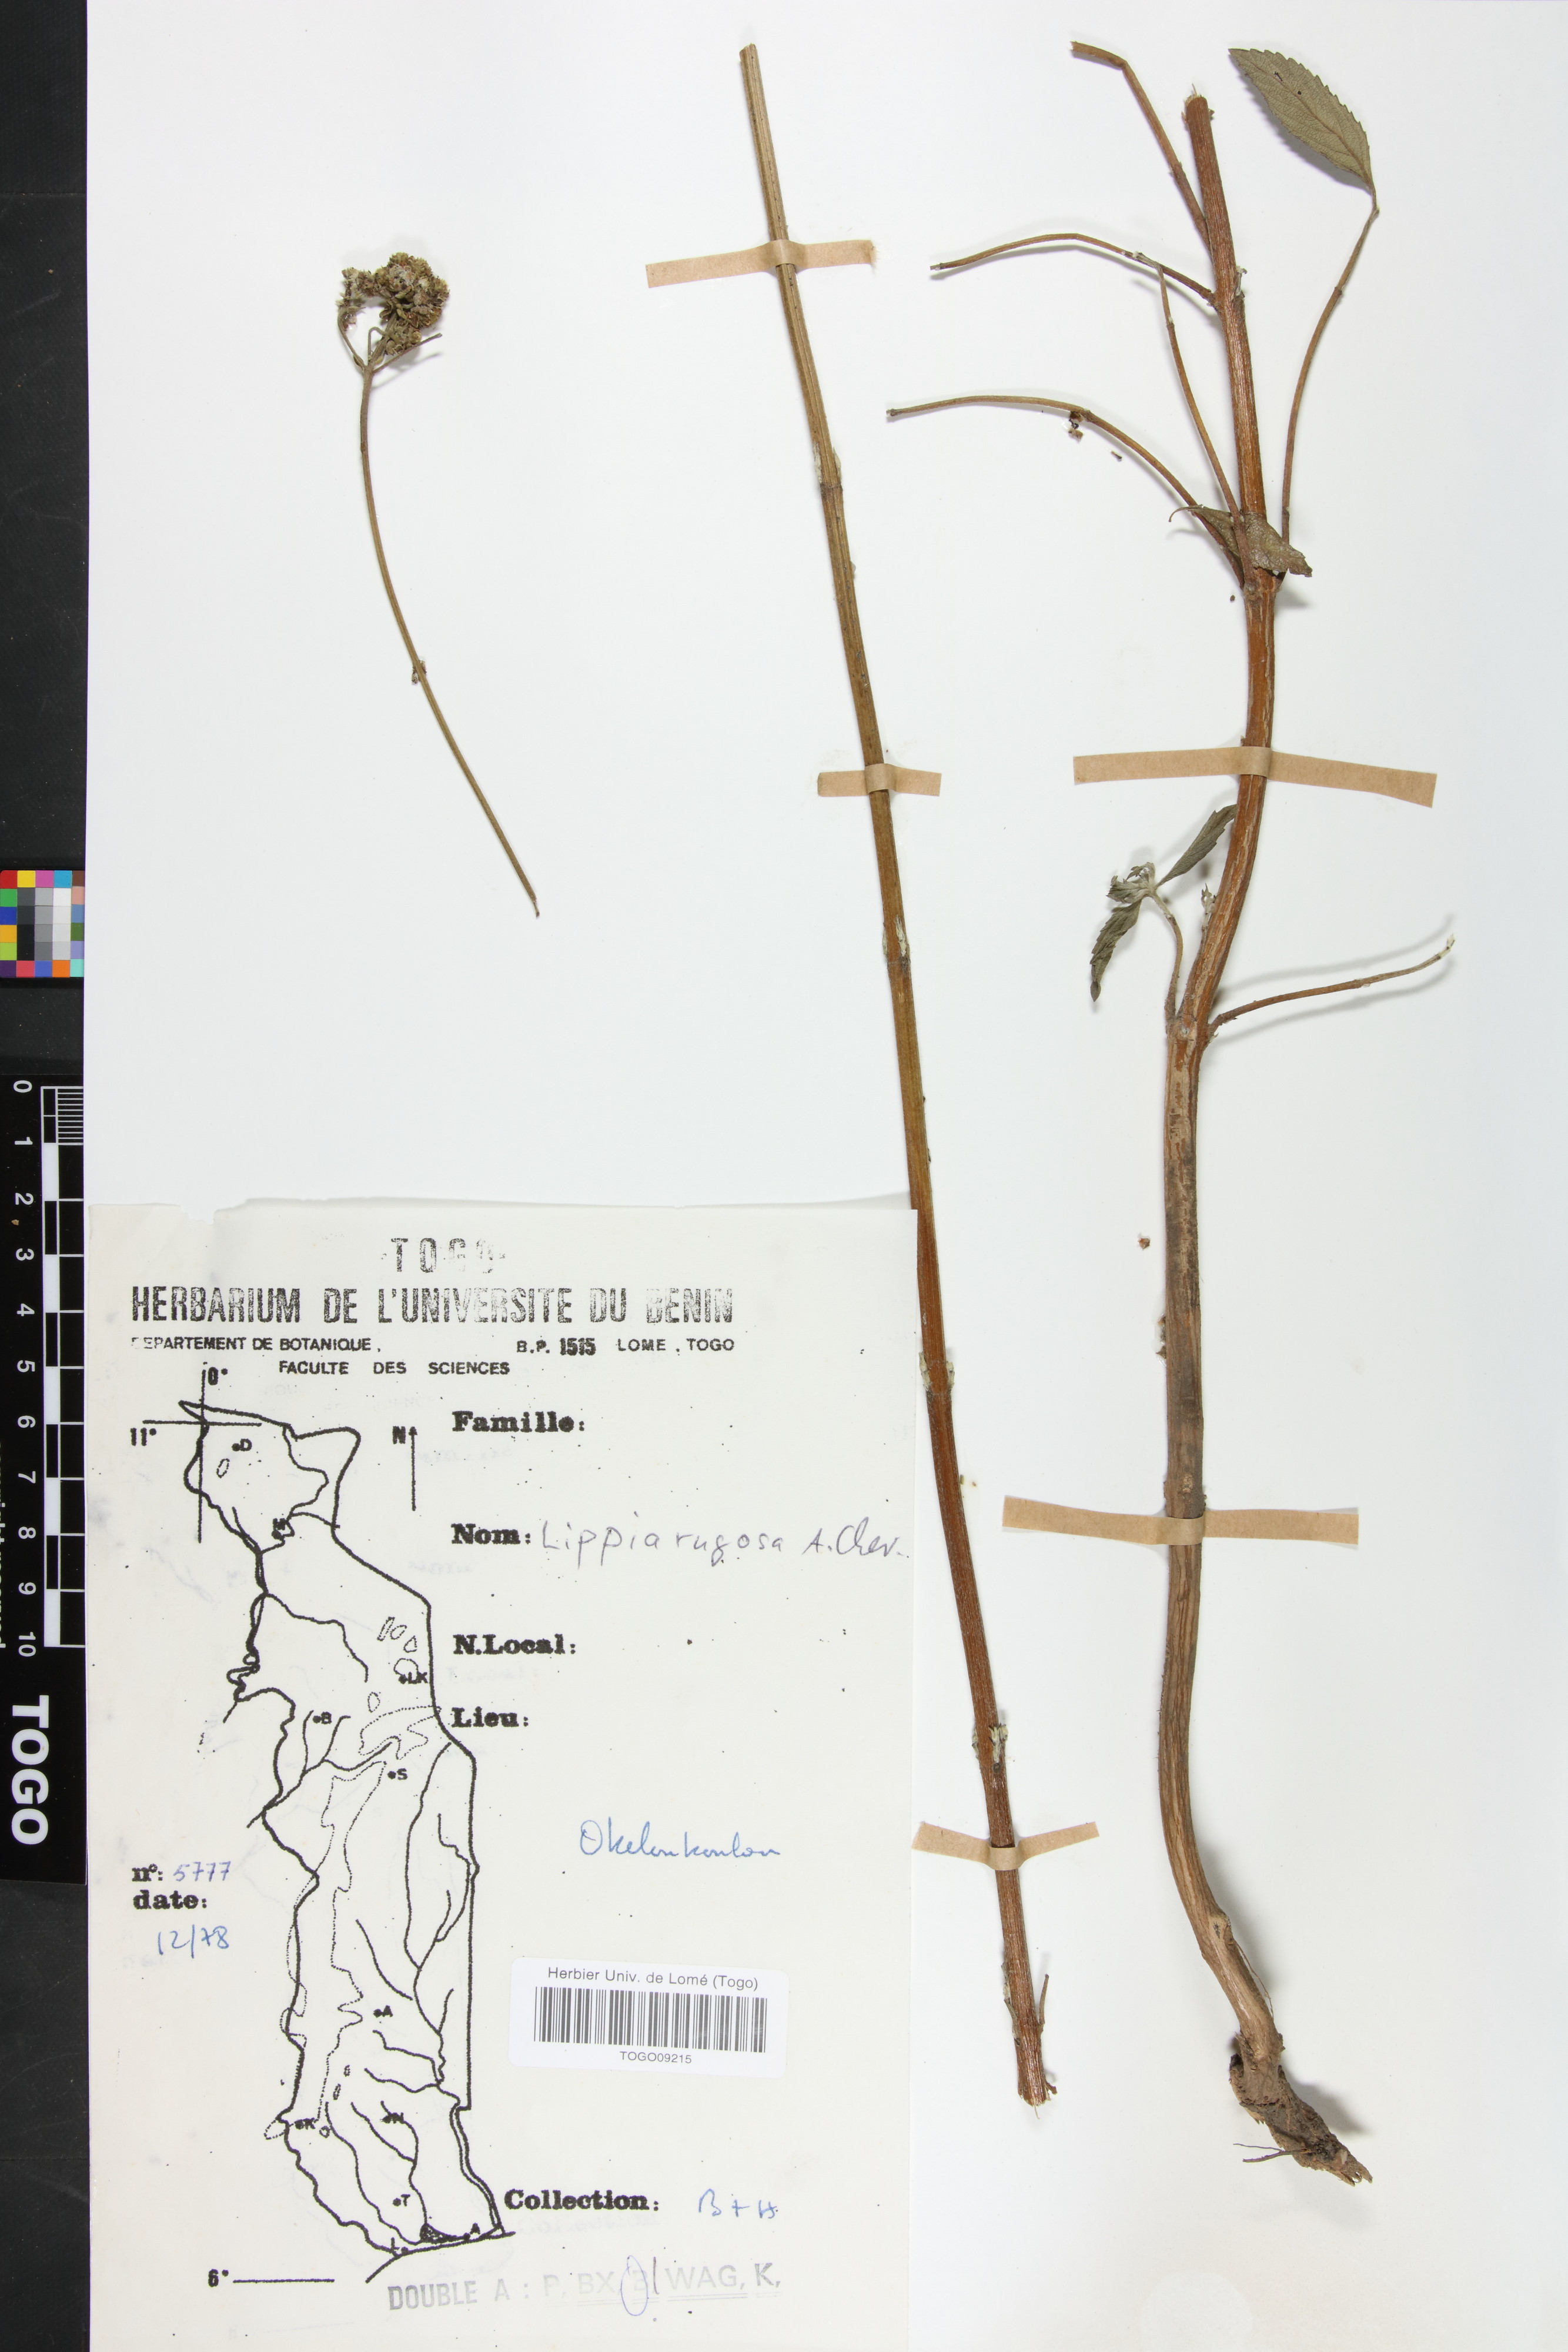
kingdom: Plantae
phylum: Tracheophyta
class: Magnoliopsida
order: Lamiales
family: Verbenaceae
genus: Lippia
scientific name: Lippia rugosa
